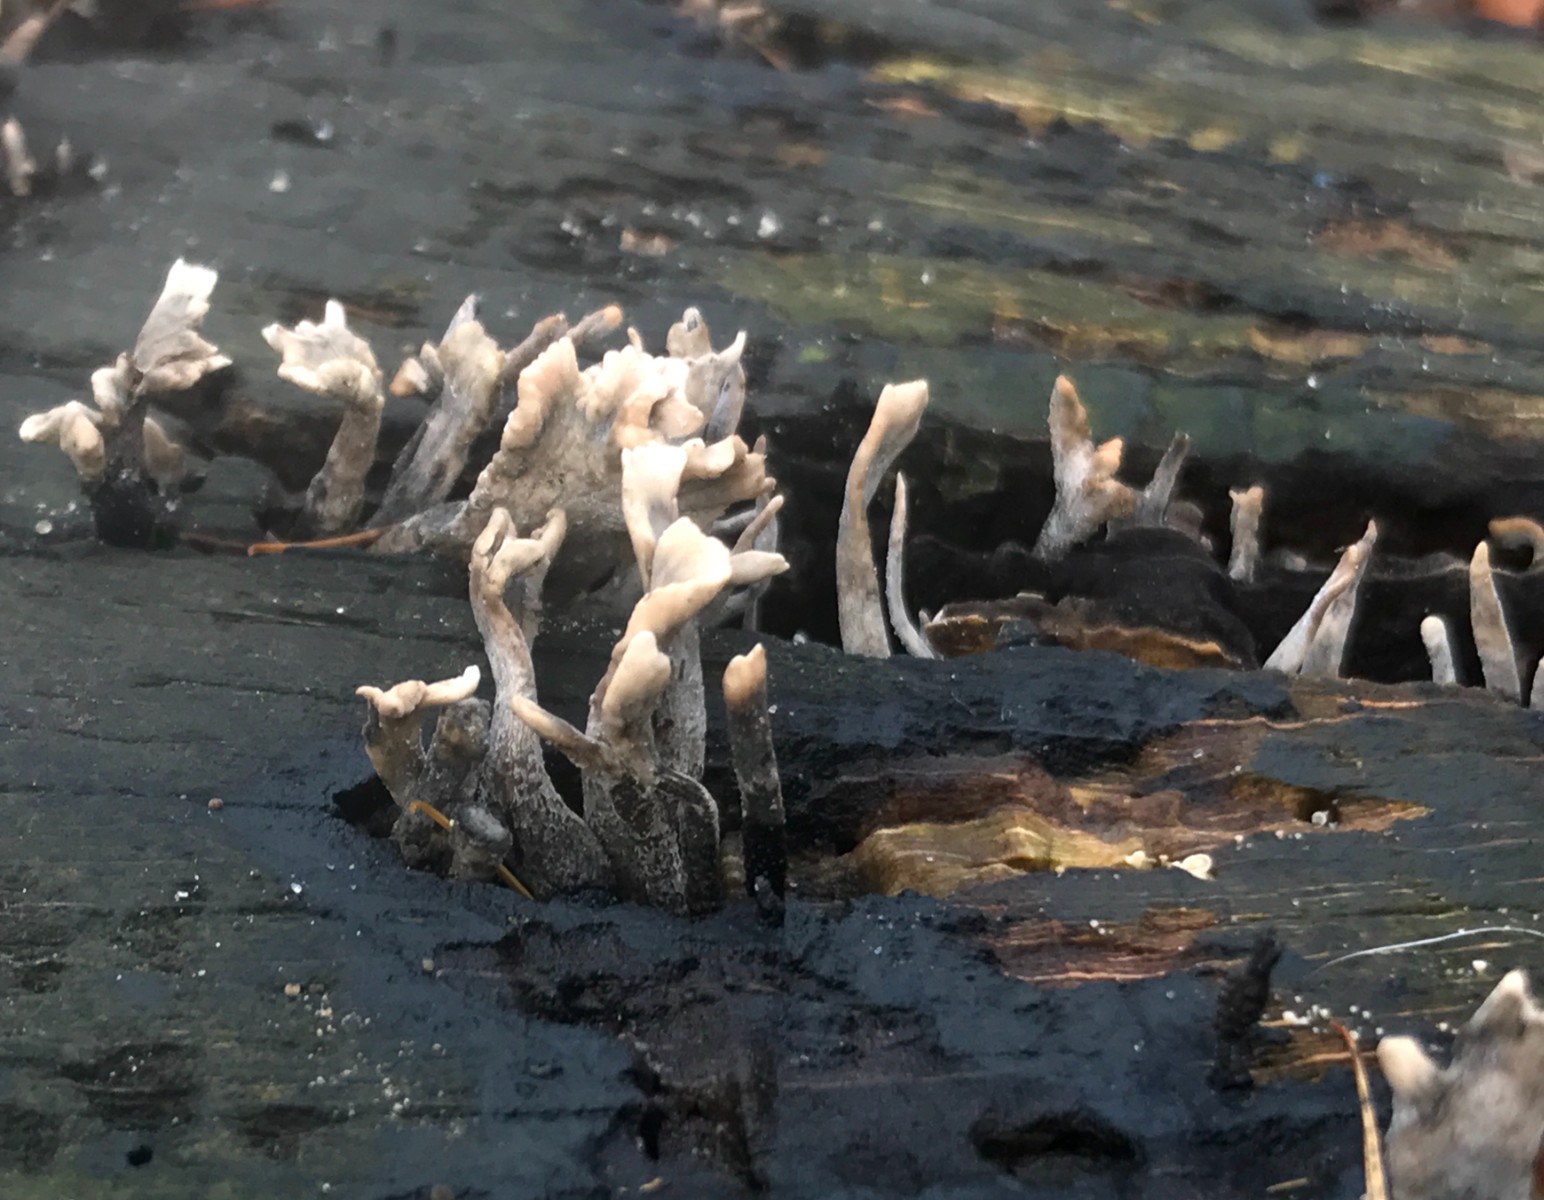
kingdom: Fungi
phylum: Ascomycota
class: Sordariomycetes
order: Xylariales
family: Xylariaceae
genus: Xylaria
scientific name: Xylaria hypoxylon
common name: grenet stødsvamp
